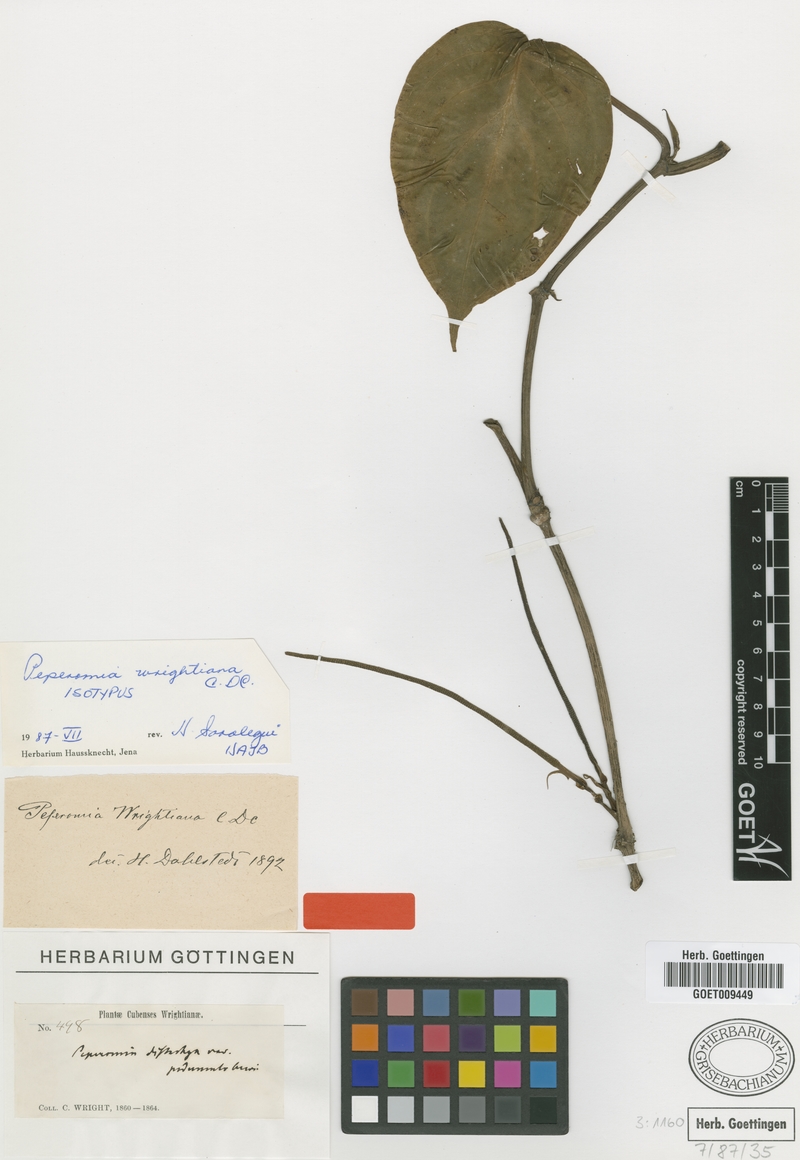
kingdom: Plantae
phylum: Tracheophyta
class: Magnoliopsida
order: Piperales
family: Piperaceae
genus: Peperomia
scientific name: Peperomia pseudorhynchophora
